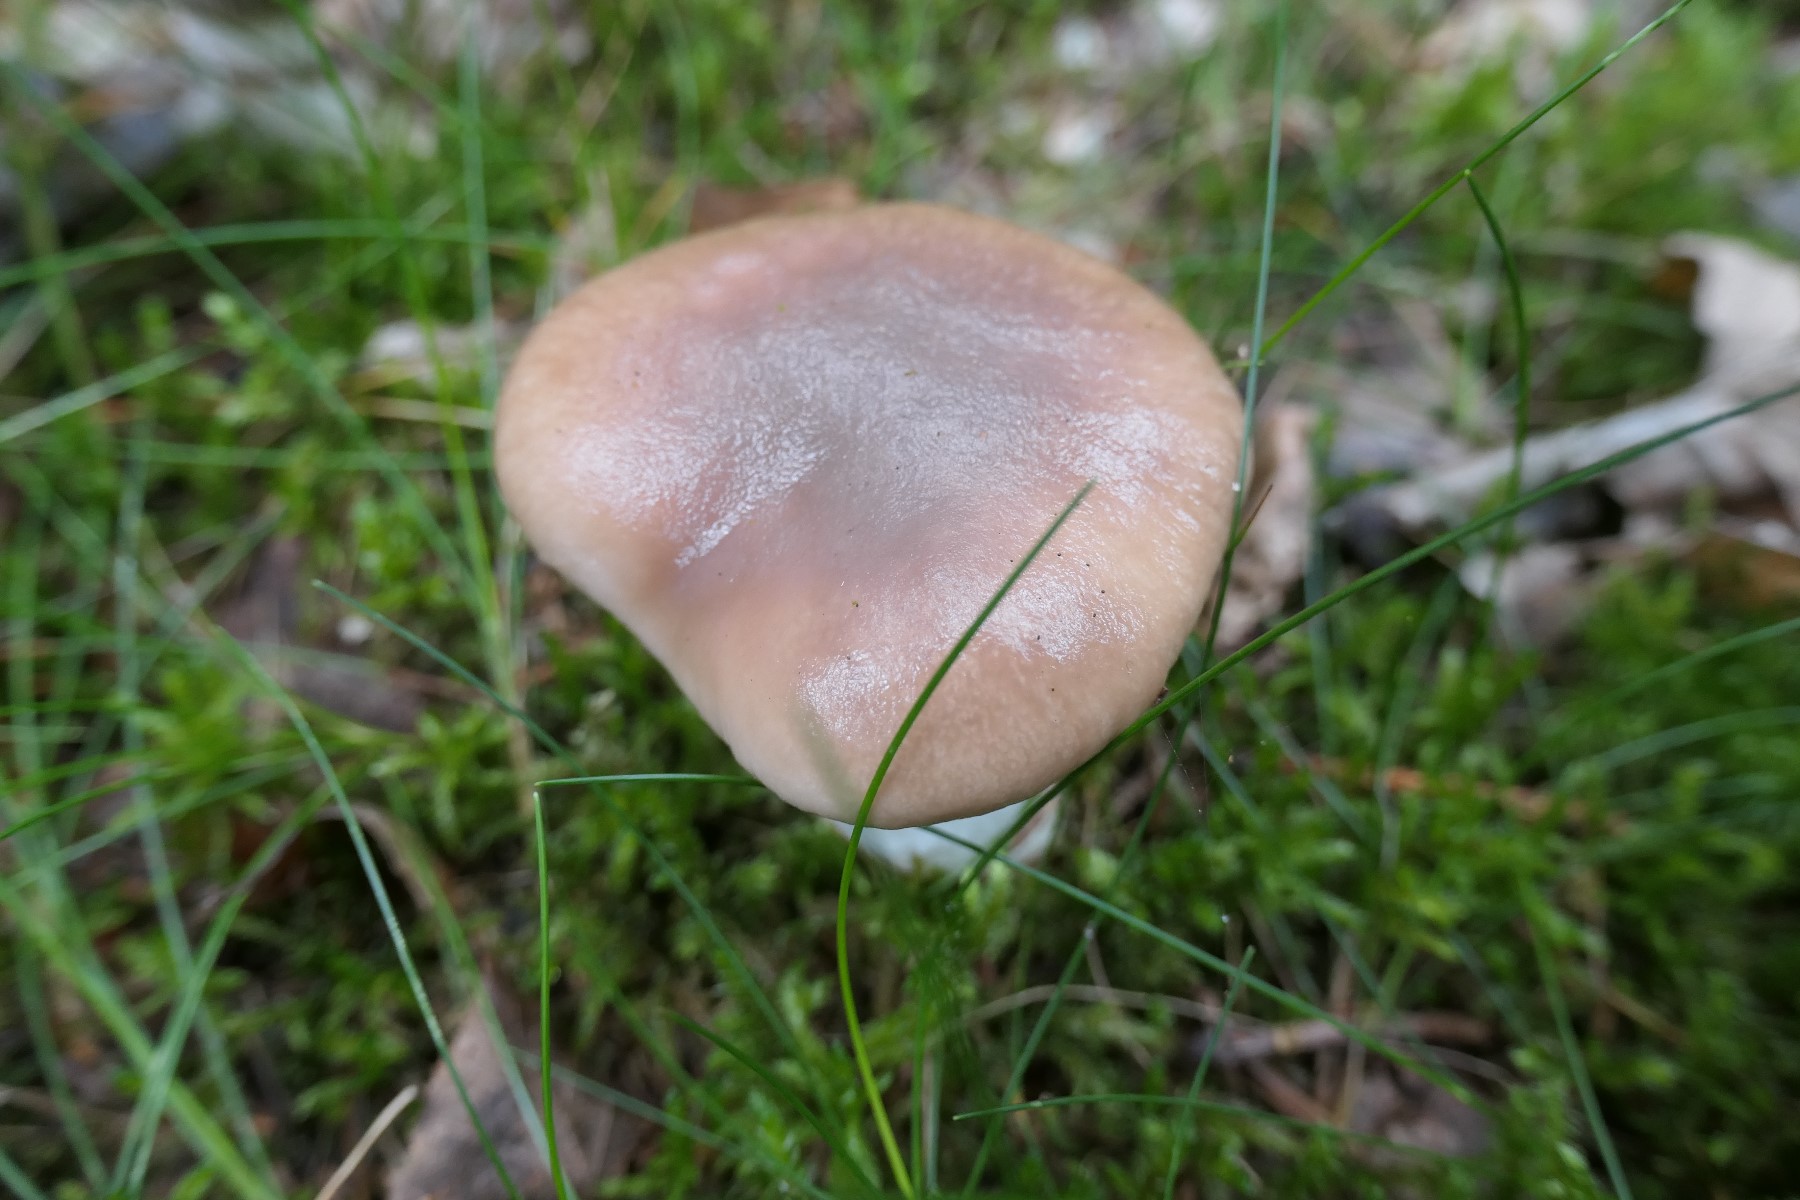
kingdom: Fungi
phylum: Basidiomycota
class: Agaricomycetes
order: Boletales
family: Gomphidiaceae
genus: Gomphidius
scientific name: Gomphidius glutinosus
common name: grå slimslør
